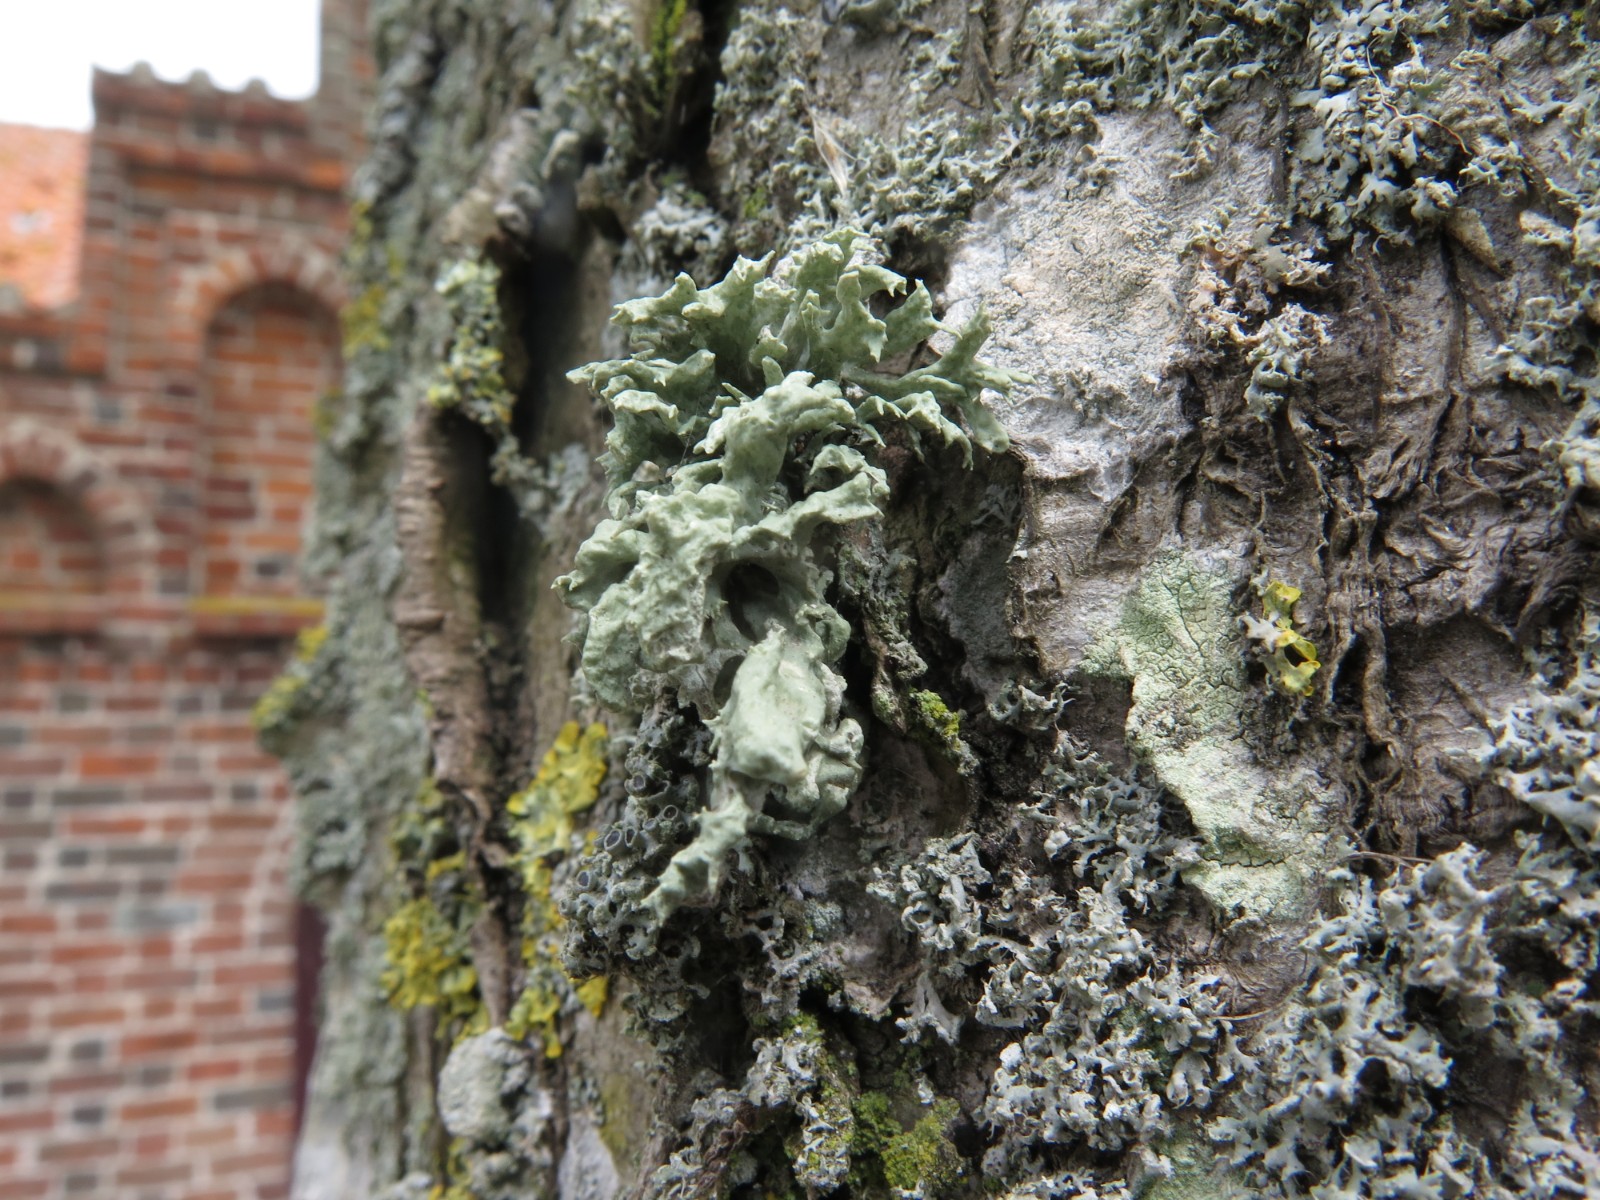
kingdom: Fungi
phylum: Ascomycota
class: Lecanoromycetes
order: Lecanorales
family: Parmeliaceae
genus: Evernia
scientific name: Evernia prunastri
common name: almindelig slåenlav
